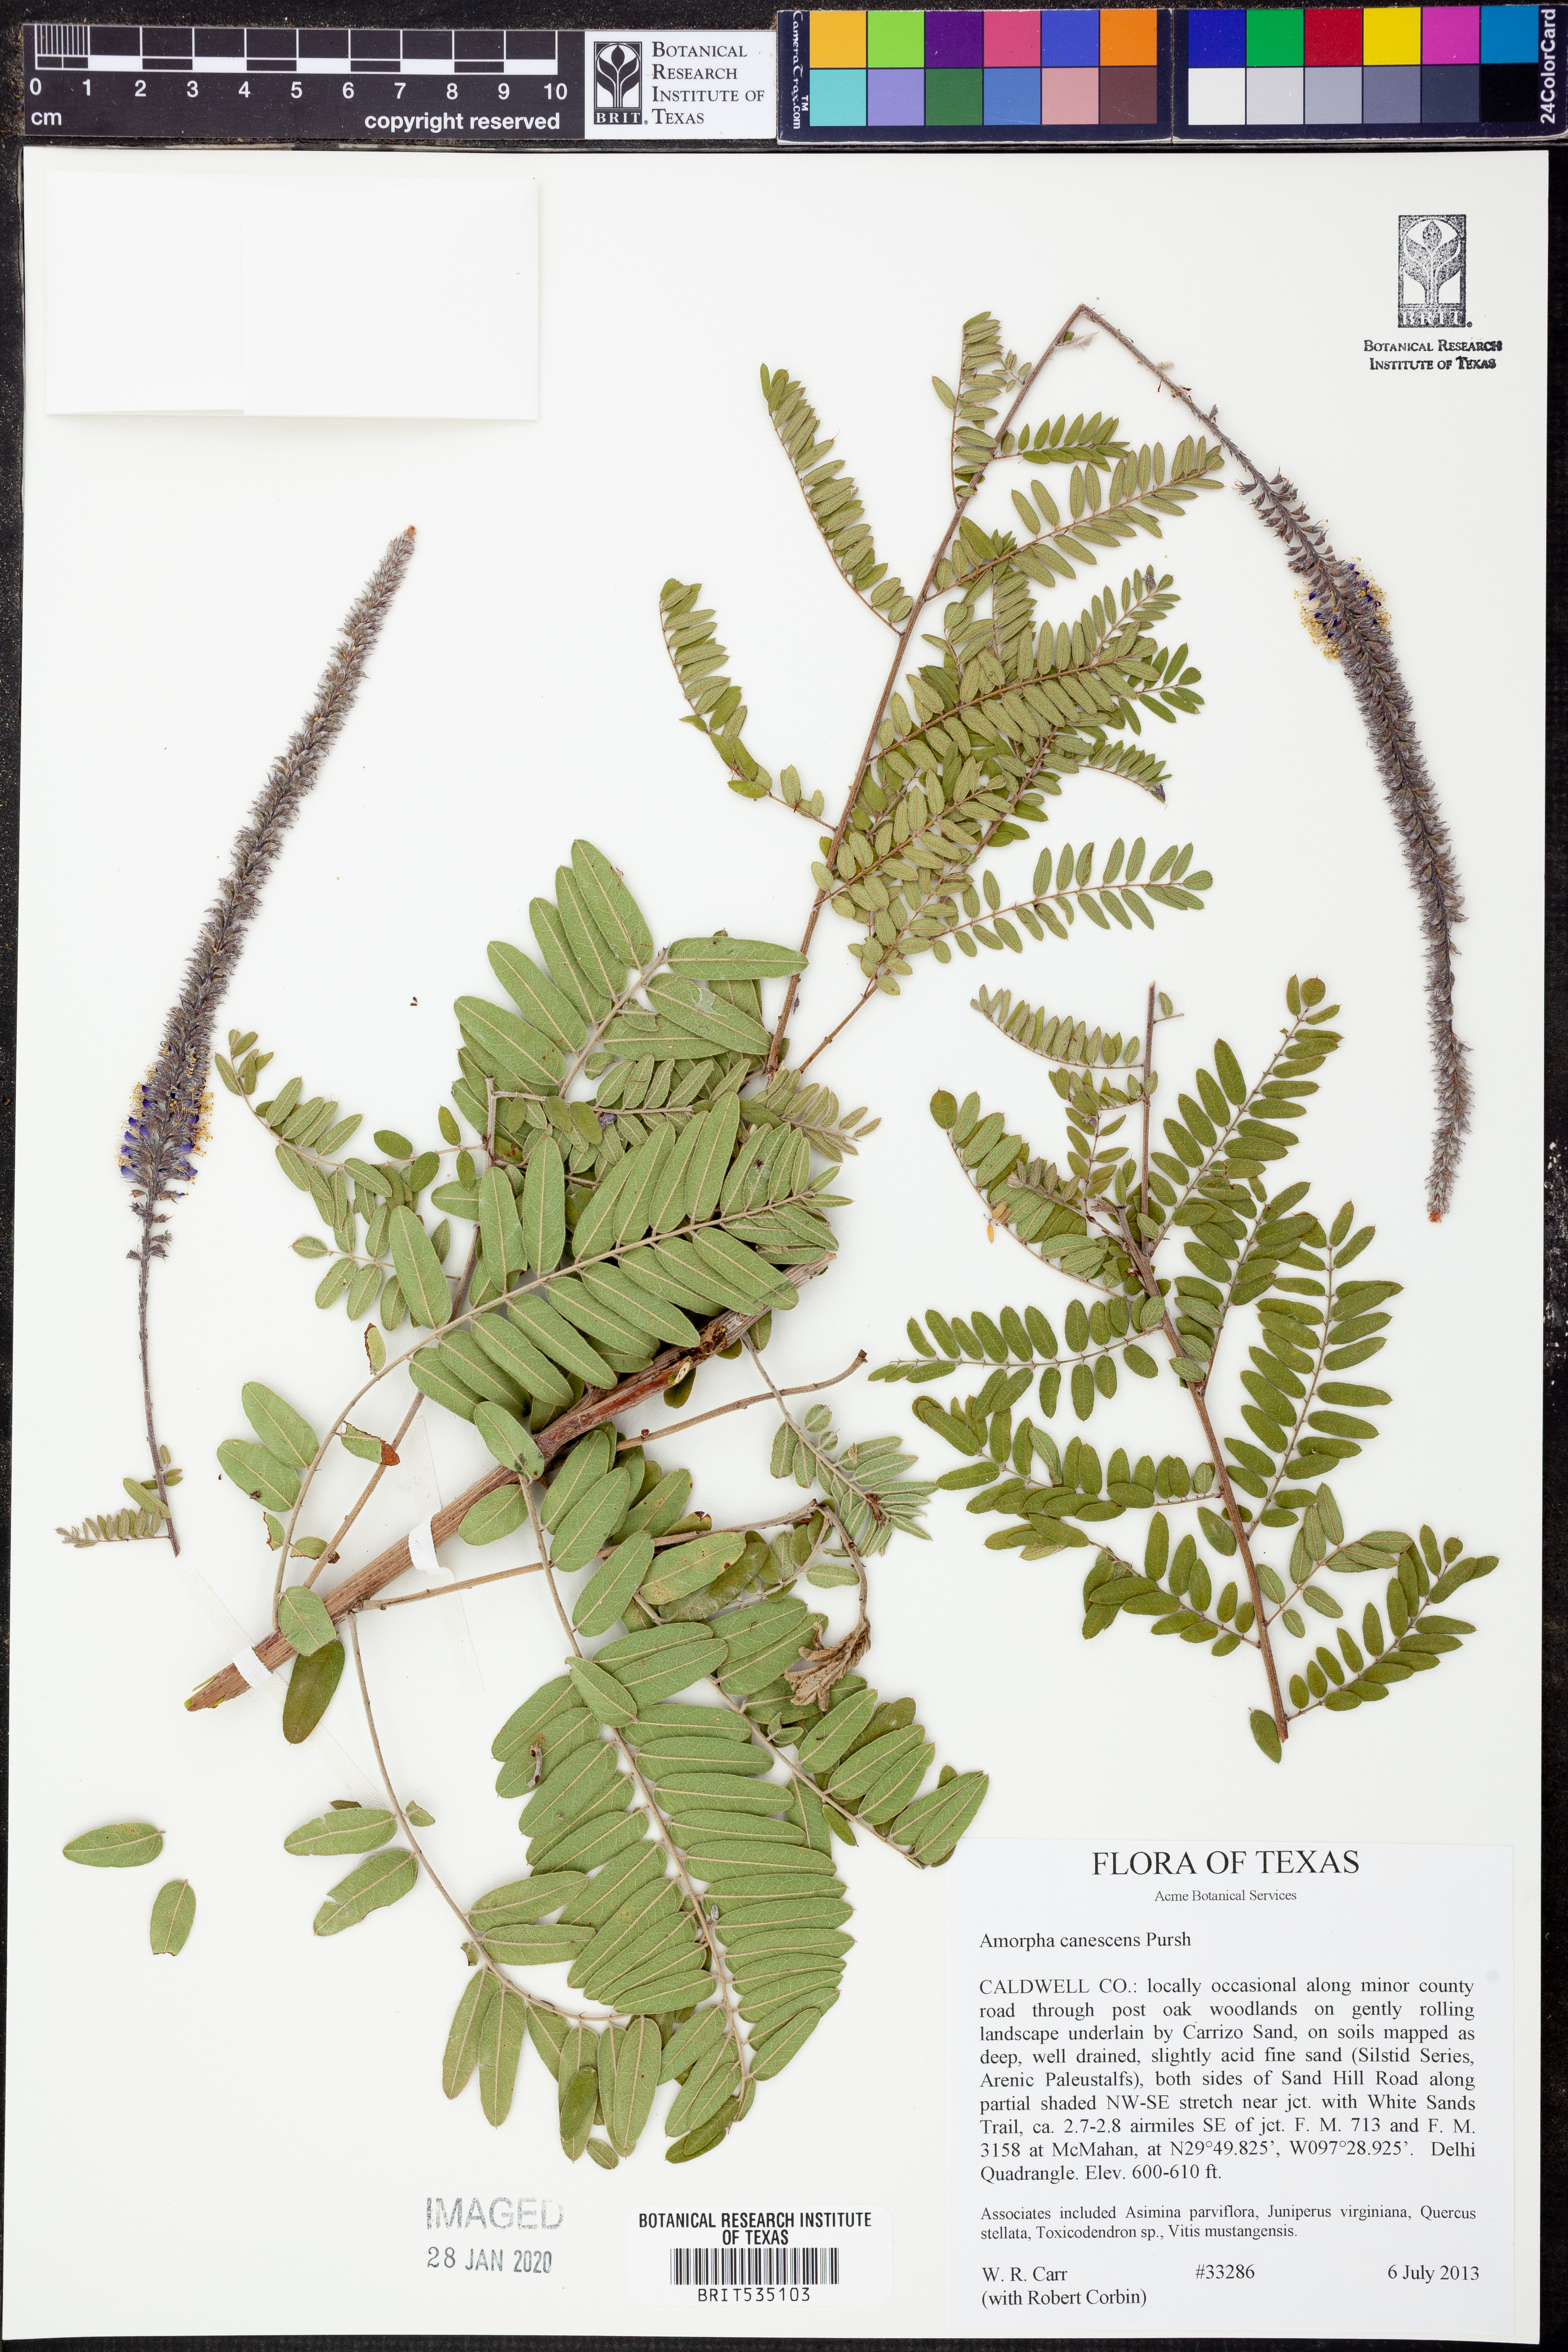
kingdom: Plantae
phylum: Tracheophyta
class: Magnoliopsida
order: Fabales
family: Fabaceae
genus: Amorpha
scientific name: Amorpha canescens
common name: Leadplant
